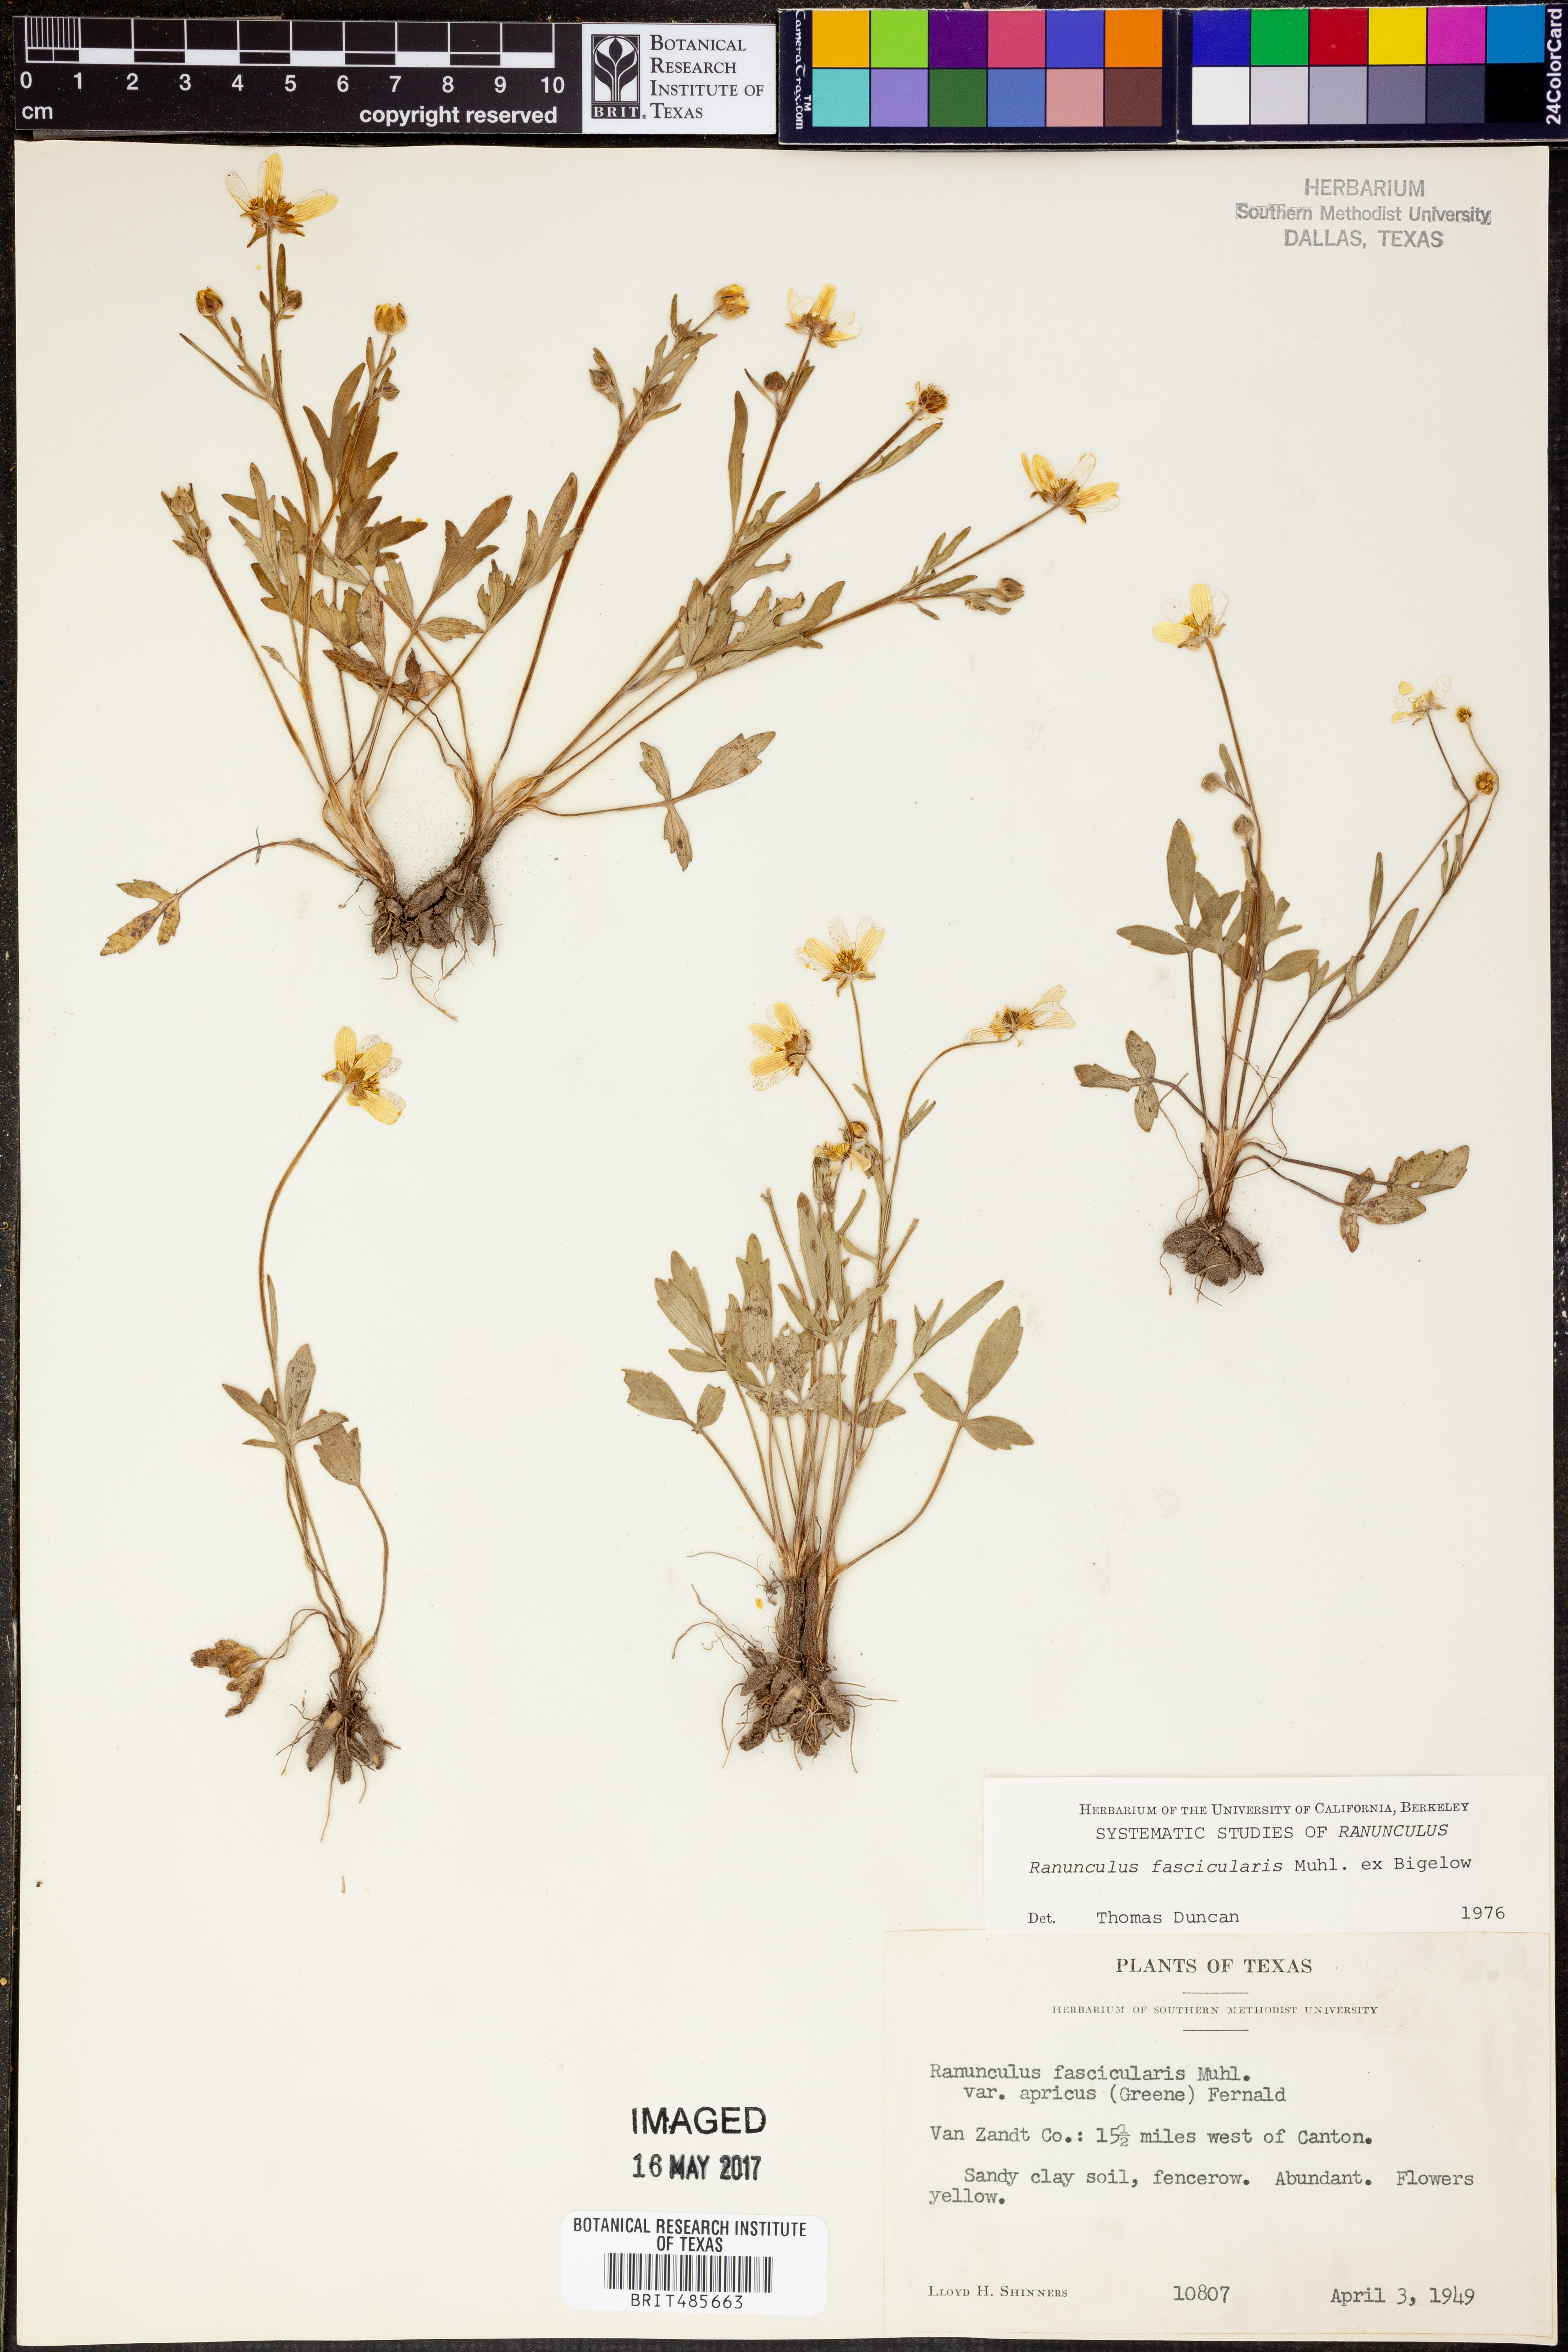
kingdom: Plantae
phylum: Tracheophyta
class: Magnoliopsida
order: Ranunculales
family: Ranunculaceae
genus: Ranunculus
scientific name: Ranunculus fascicularis
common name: Early buttercup
